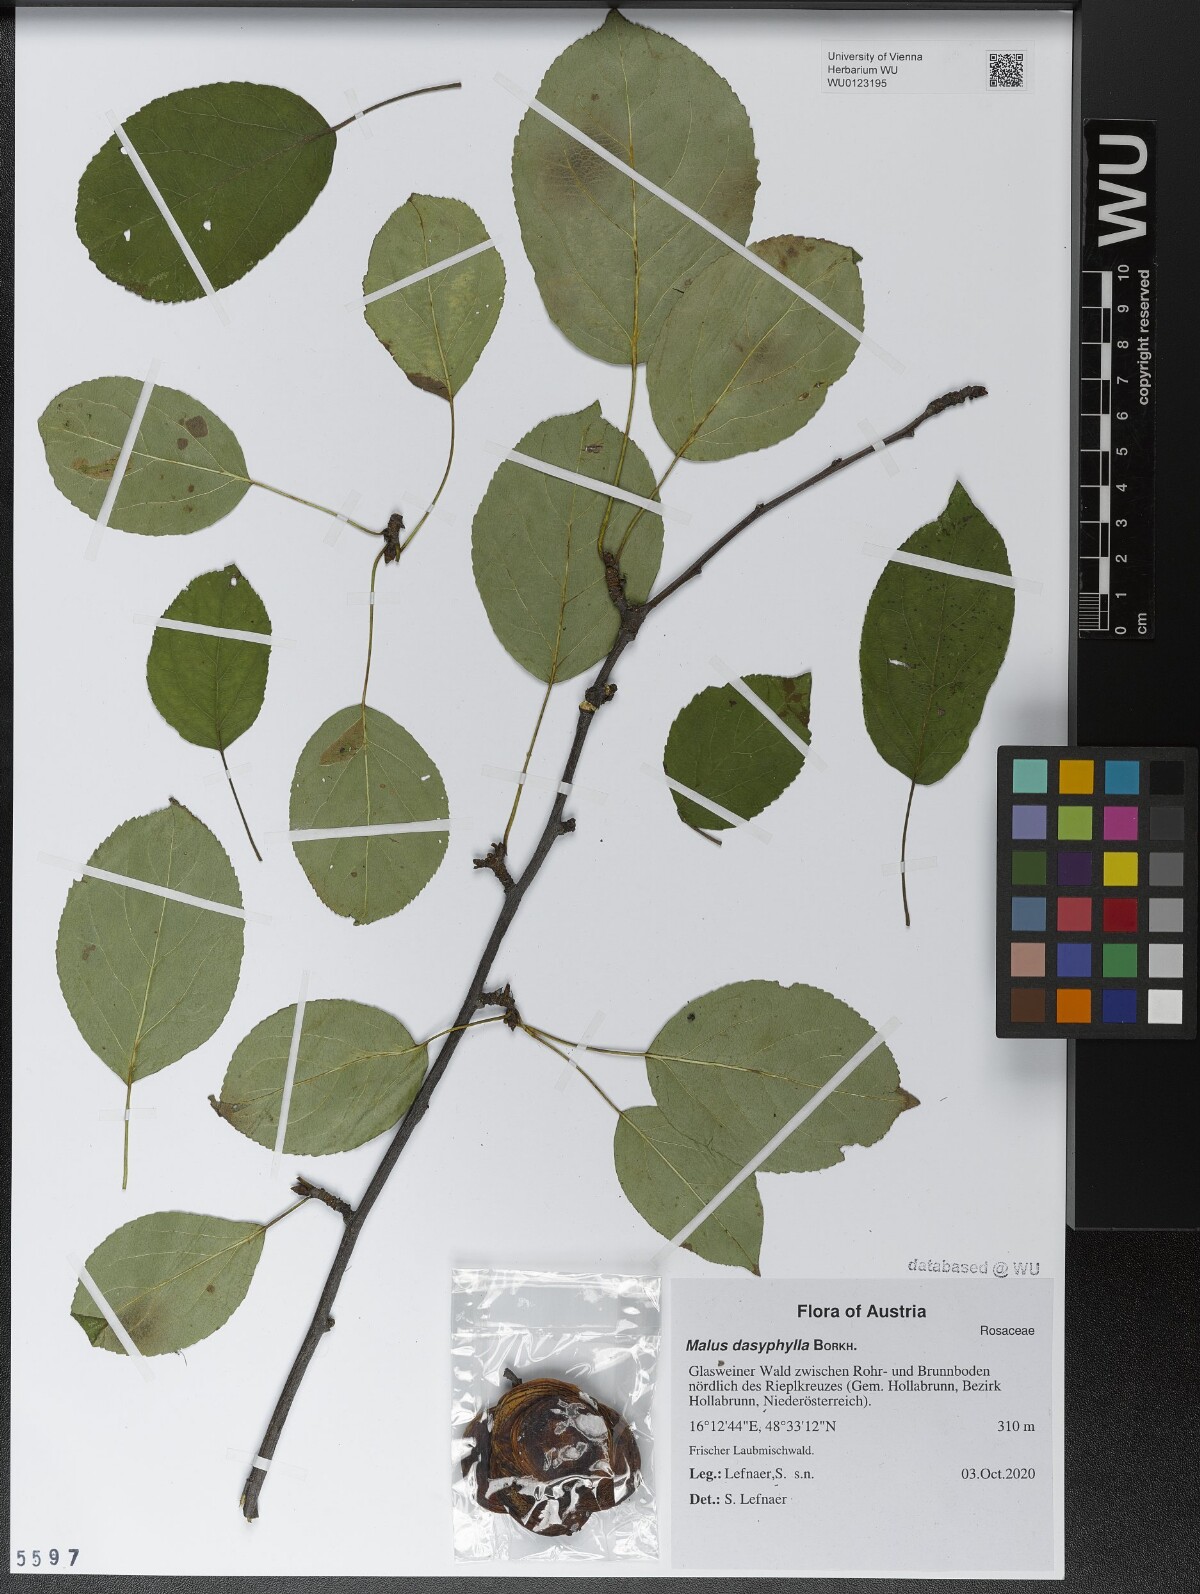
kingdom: Plantae
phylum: Tracheophyta
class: Magnoliopsida
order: Rosales
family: Rosaceae
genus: Malus
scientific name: Malus dasyphylla
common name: Paradise apple
